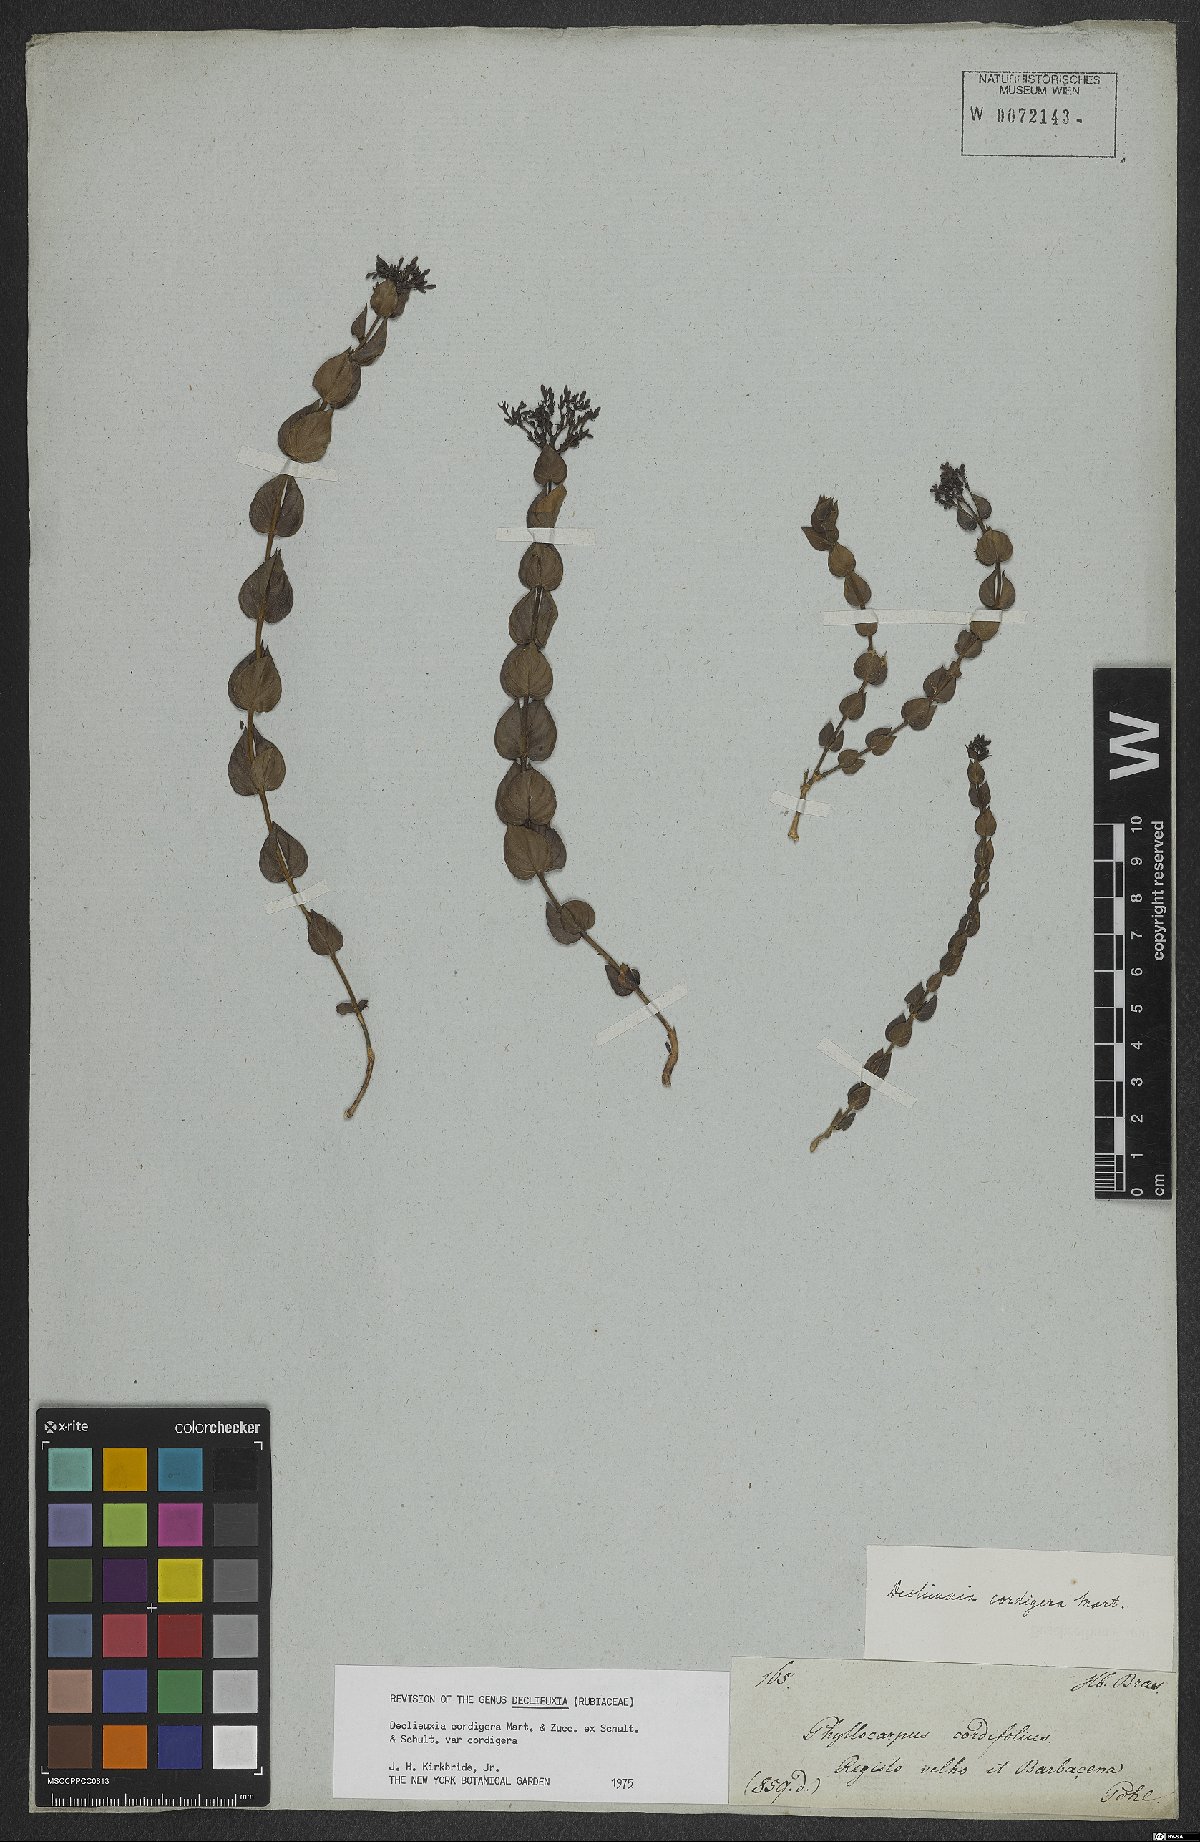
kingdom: Plantae
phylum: Tracheophyta
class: Magnoliopsida
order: Gentianales
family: Rubiaceae
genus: Declieuxia
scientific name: Declieuxia cordigera
